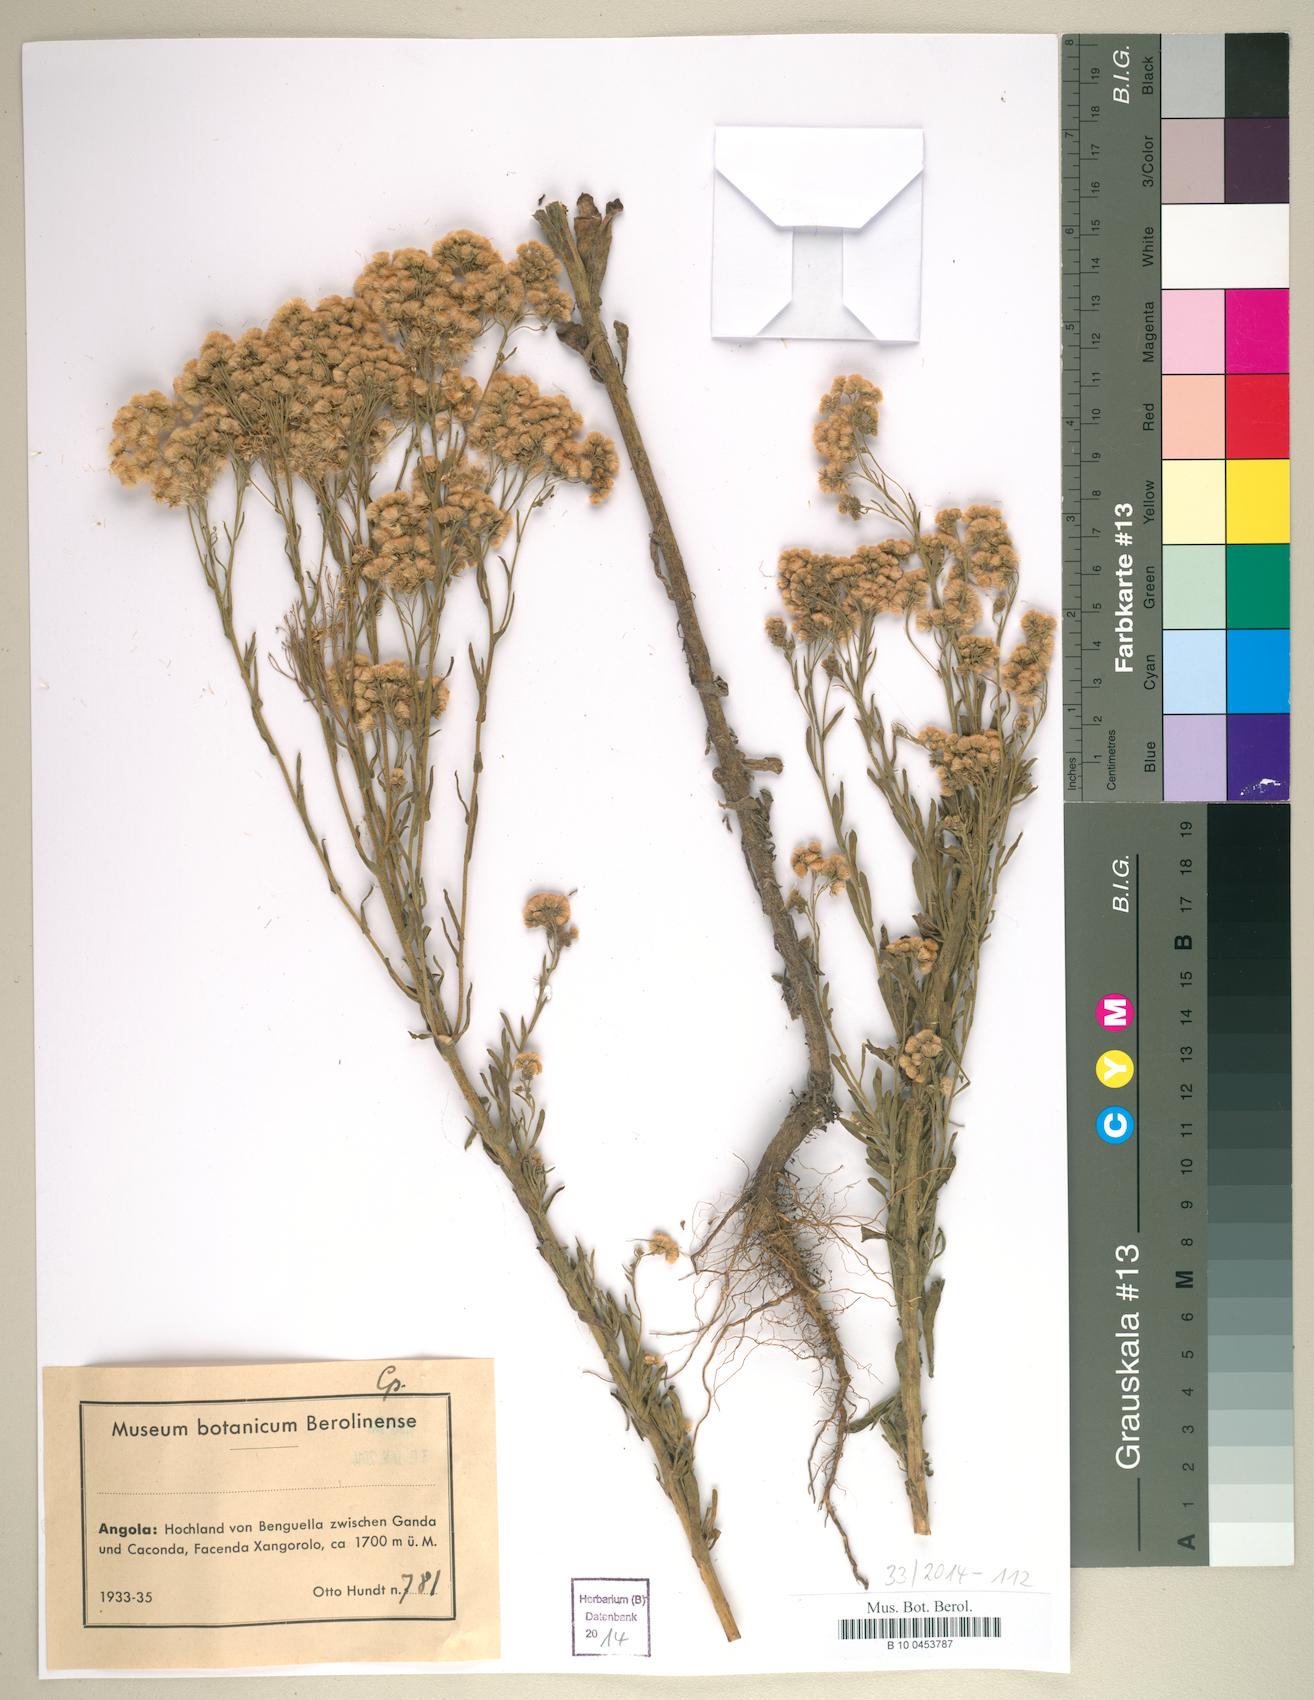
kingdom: Plantae
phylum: Tracheophyta
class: Magnoliopsida
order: Asterales
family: Asteraceae
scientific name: Asteraceae
